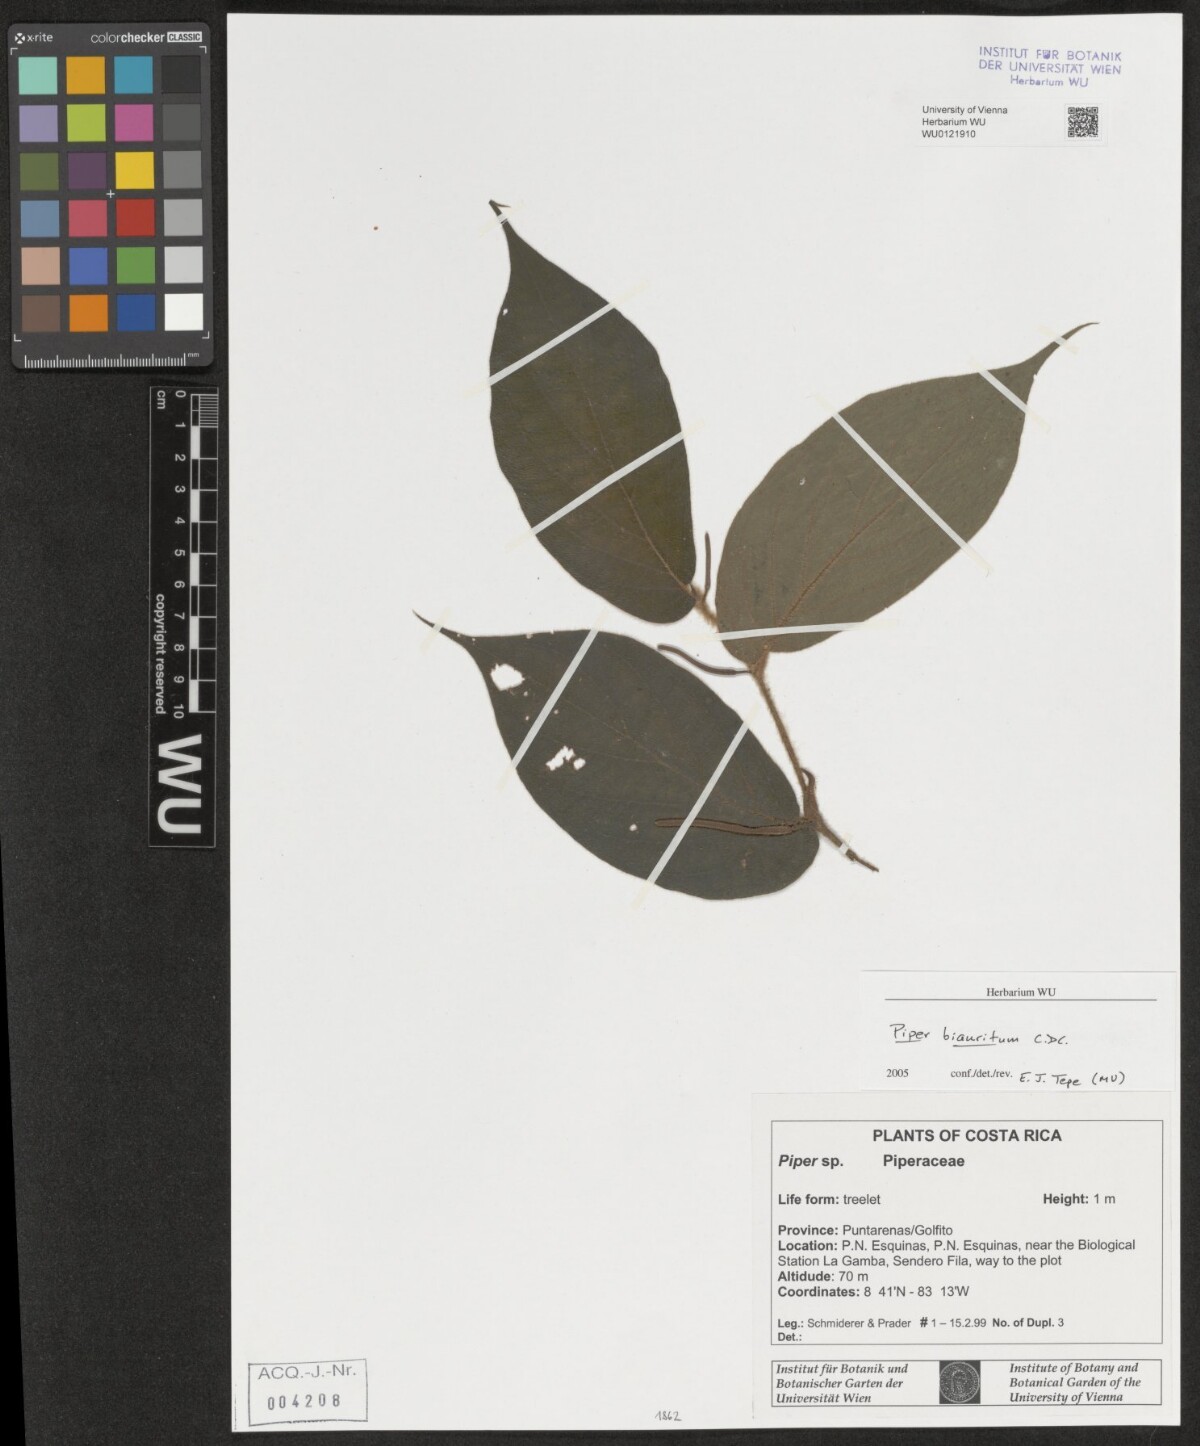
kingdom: Plantae
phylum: Tracheophyta
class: Magnoliopsida
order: Piperales
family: Piperaceae
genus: Piper
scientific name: Piper biauritum
